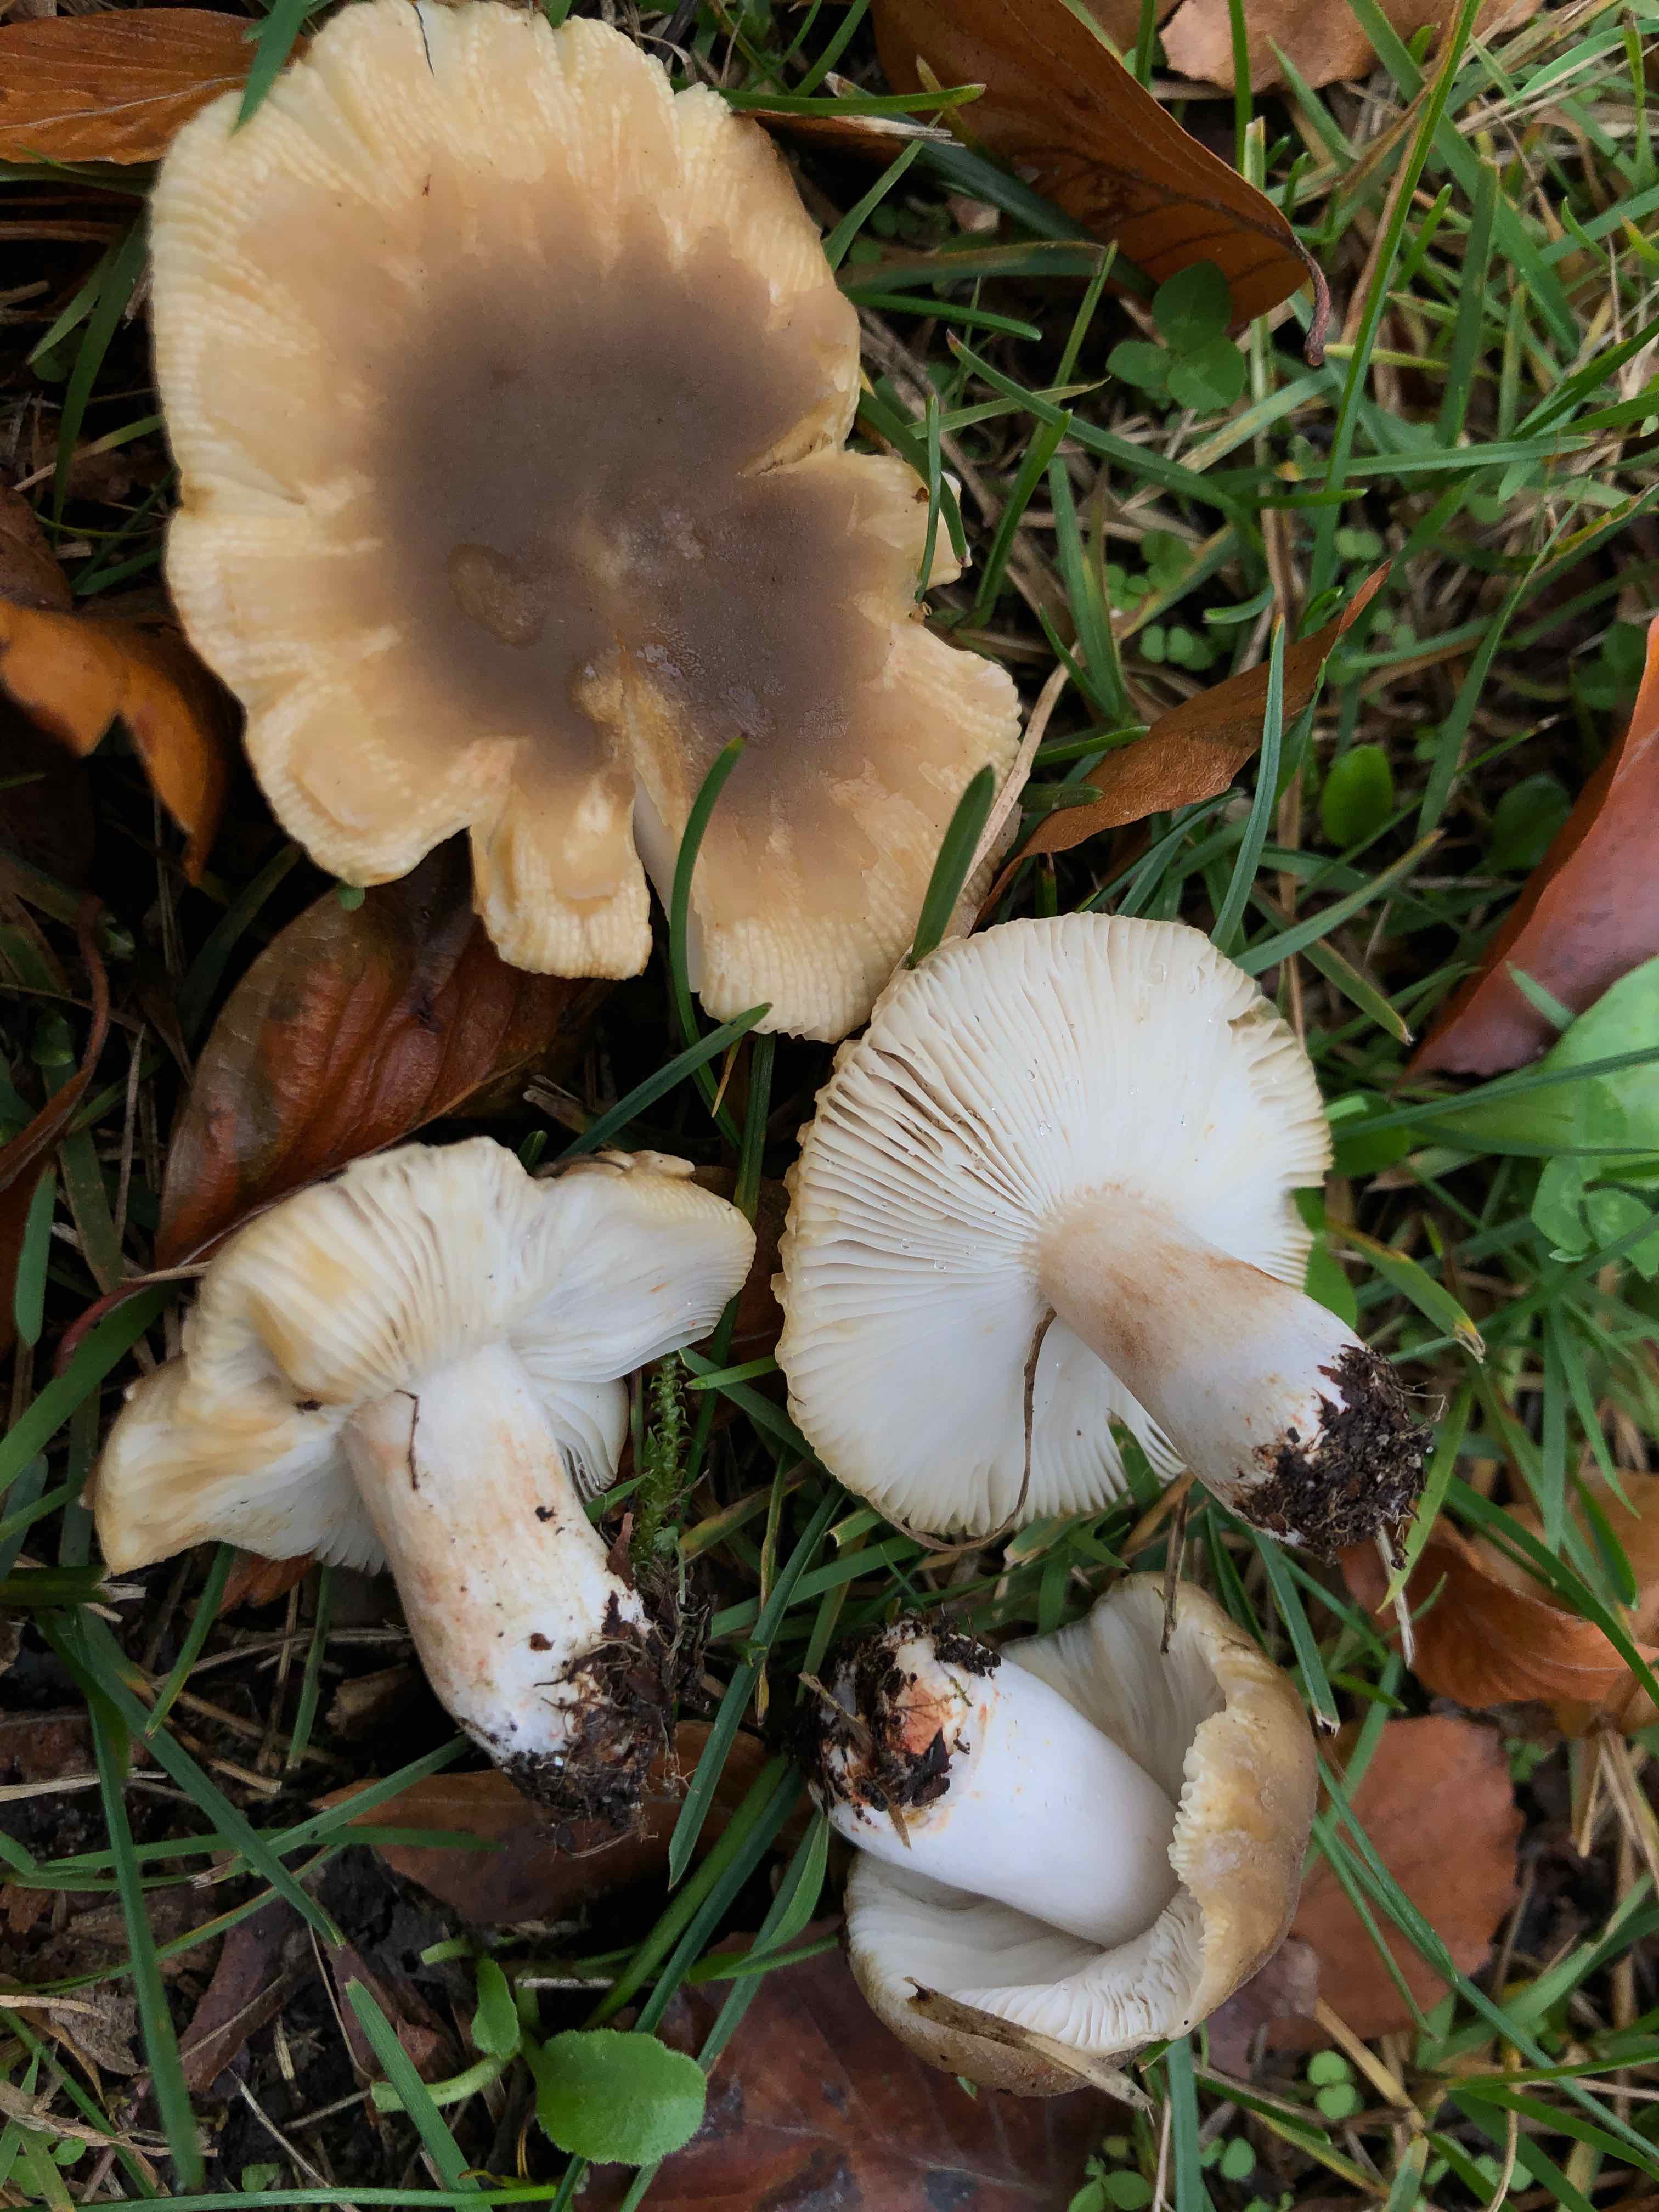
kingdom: Fungi
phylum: Basidiomycota
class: Agaricomycetes
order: Russulales
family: Russulaceae
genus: Russula
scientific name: Russula recondita
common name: mild kam-skørhat
